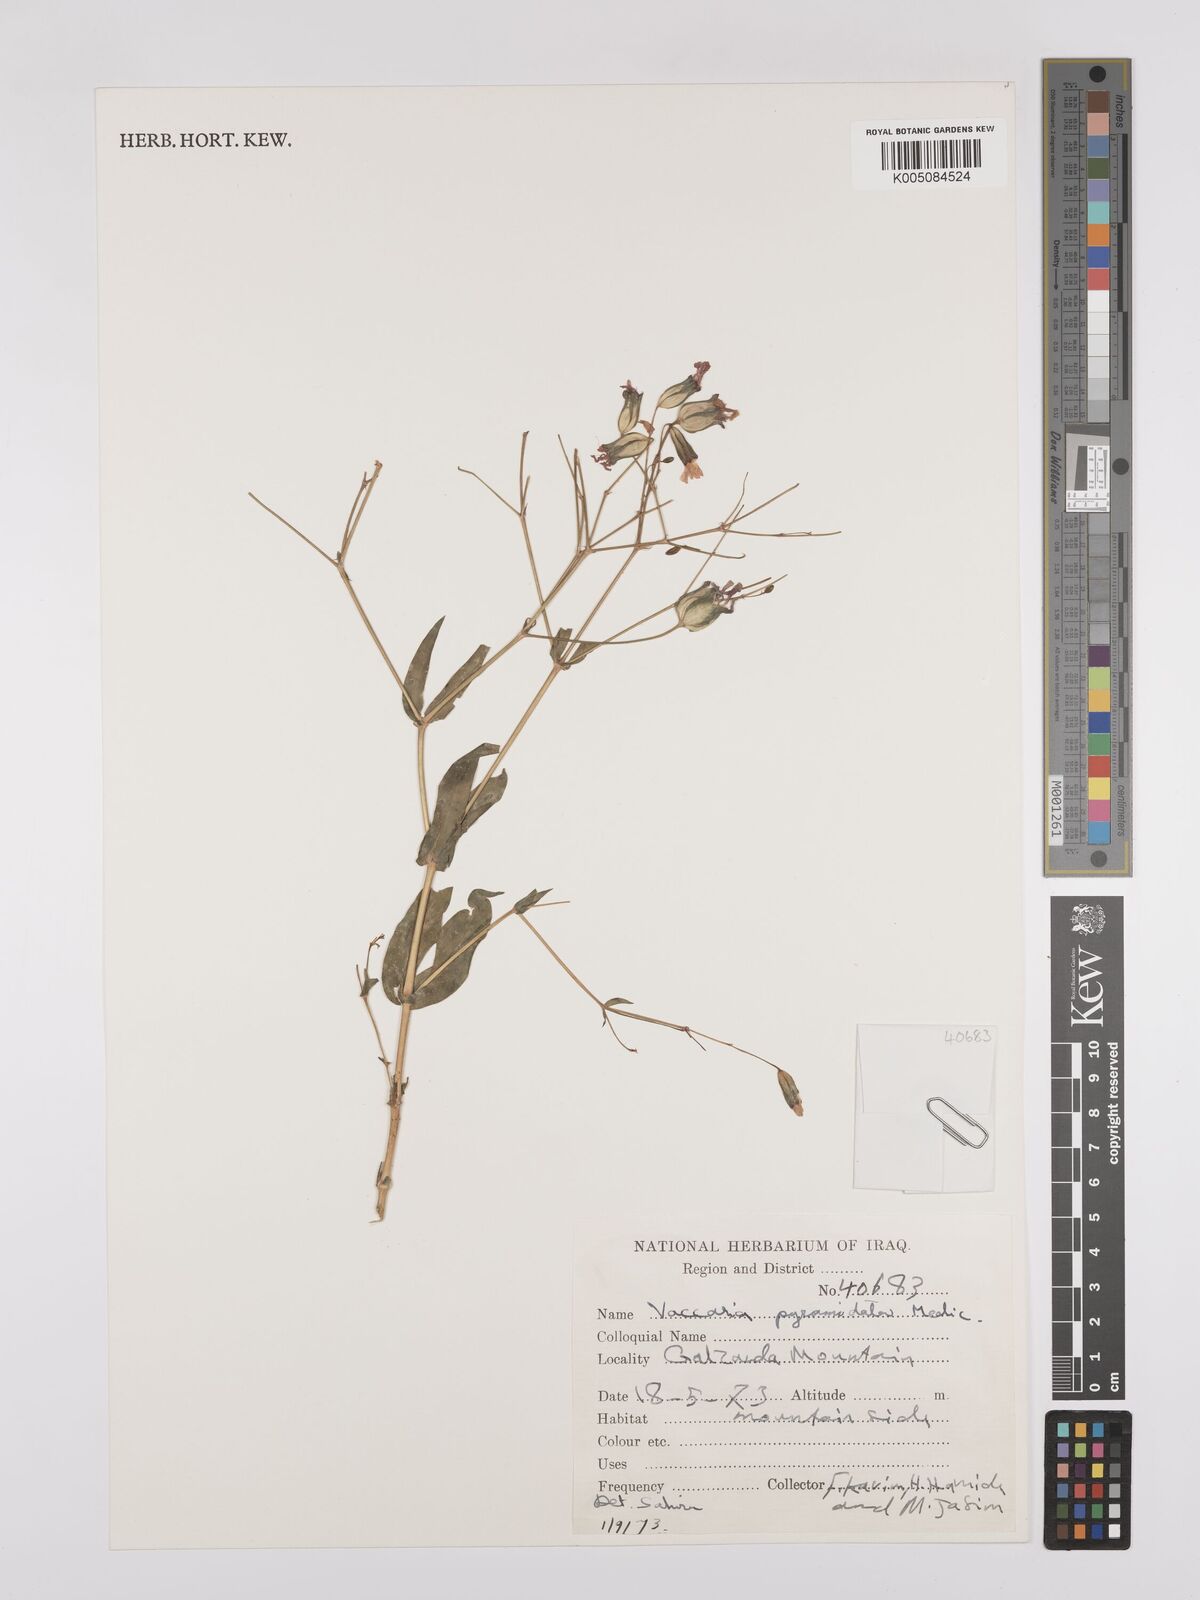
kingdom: Plantae
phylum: Tracheophyta
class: Magnoliopsida
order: Caryophyllales
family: Caryophyllaceae
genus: Gypsophila
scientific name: Gypsophila vaccaria
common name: Cow soapwort
